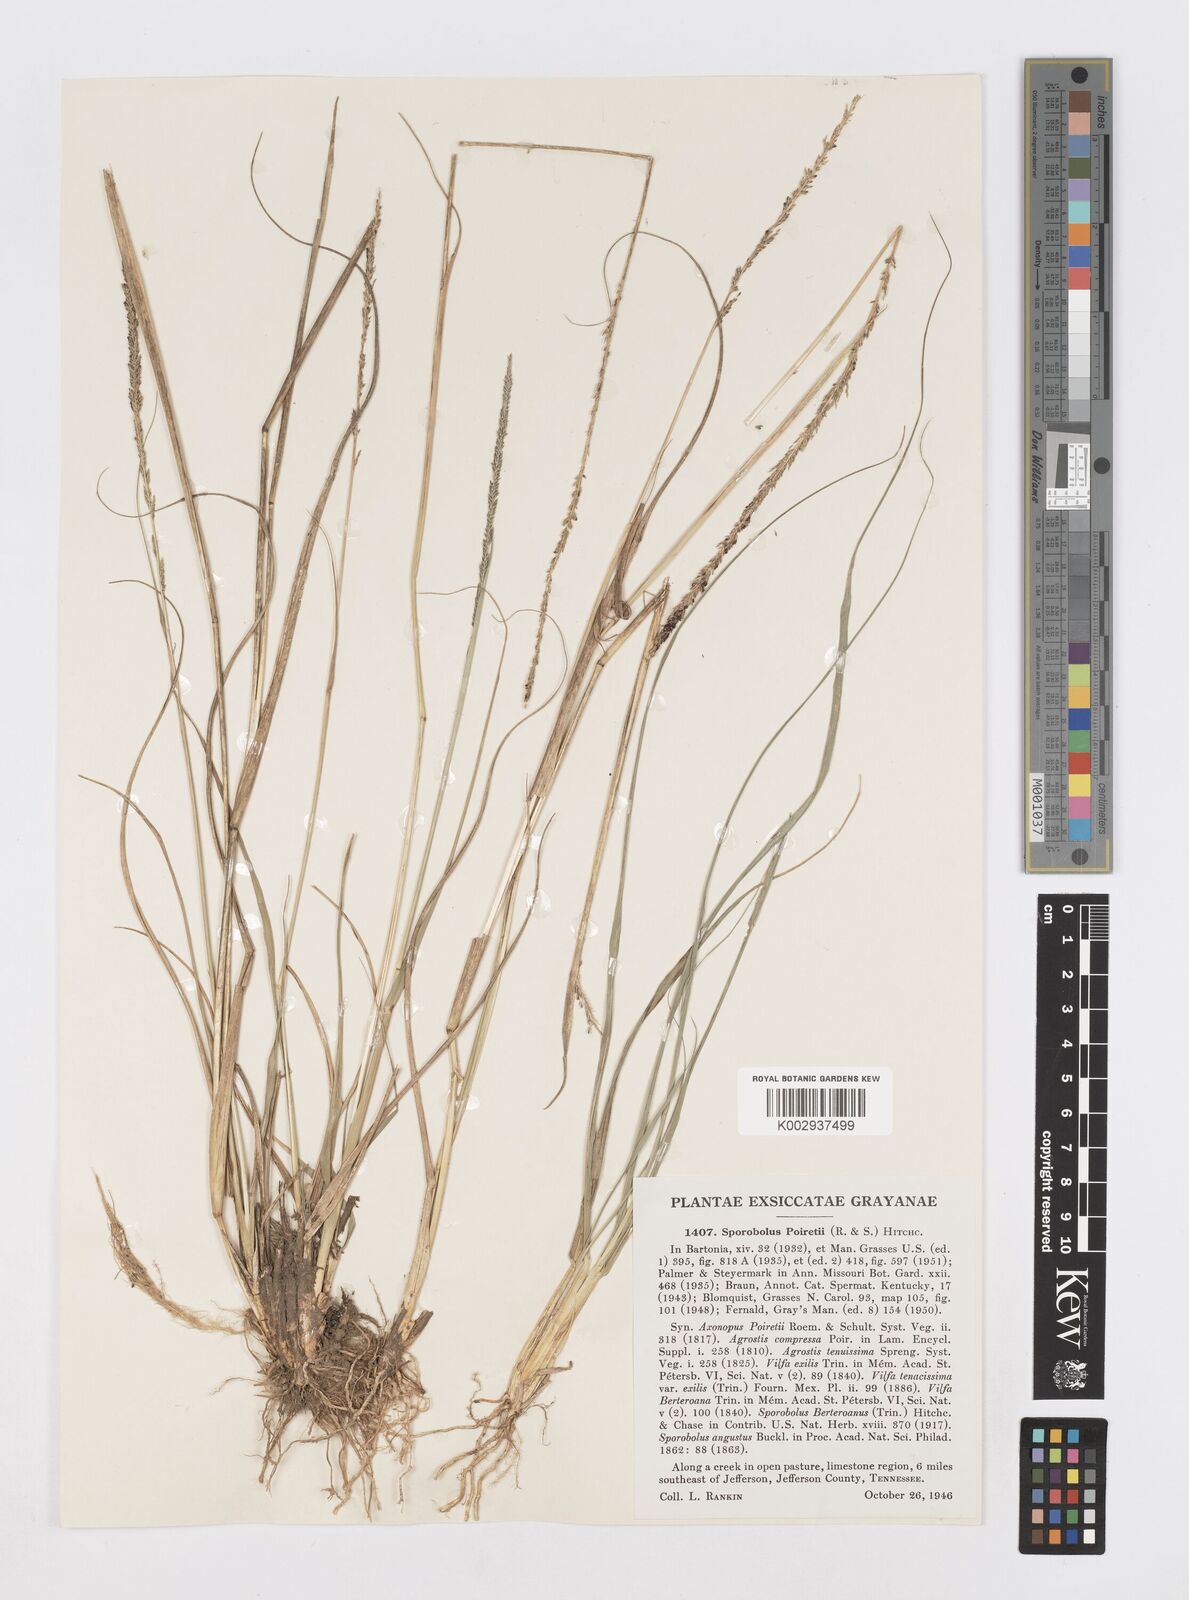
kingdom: Plantae
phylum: Tracheophyta
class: Liliopsida
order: Poales
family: Poaceae
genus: Sporobolus
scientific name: Sporobolus junceus
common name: Lizard grass
